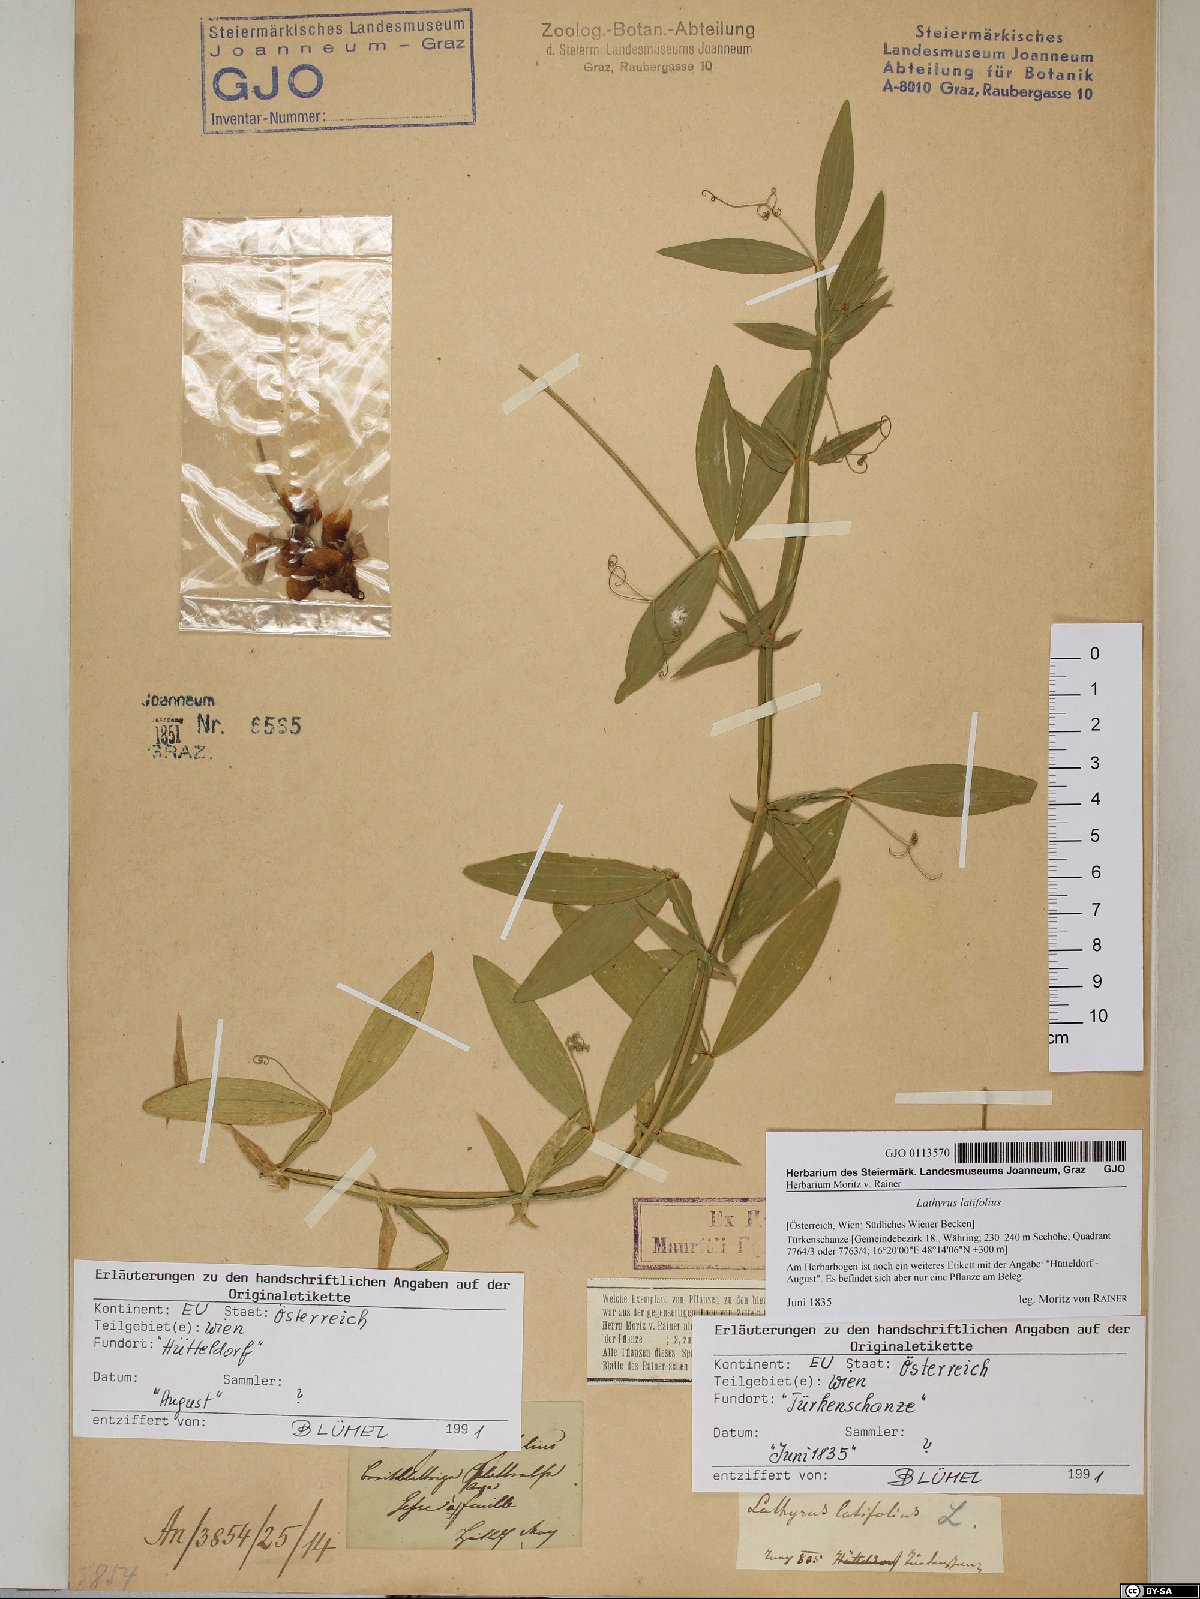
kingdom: Plantae
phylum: Tracheophyta
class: Magnoliopsida
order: Fabales
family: Fabaceae
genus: Lathyrus
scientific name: Lathyrus latifolius
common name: Perennial pea
